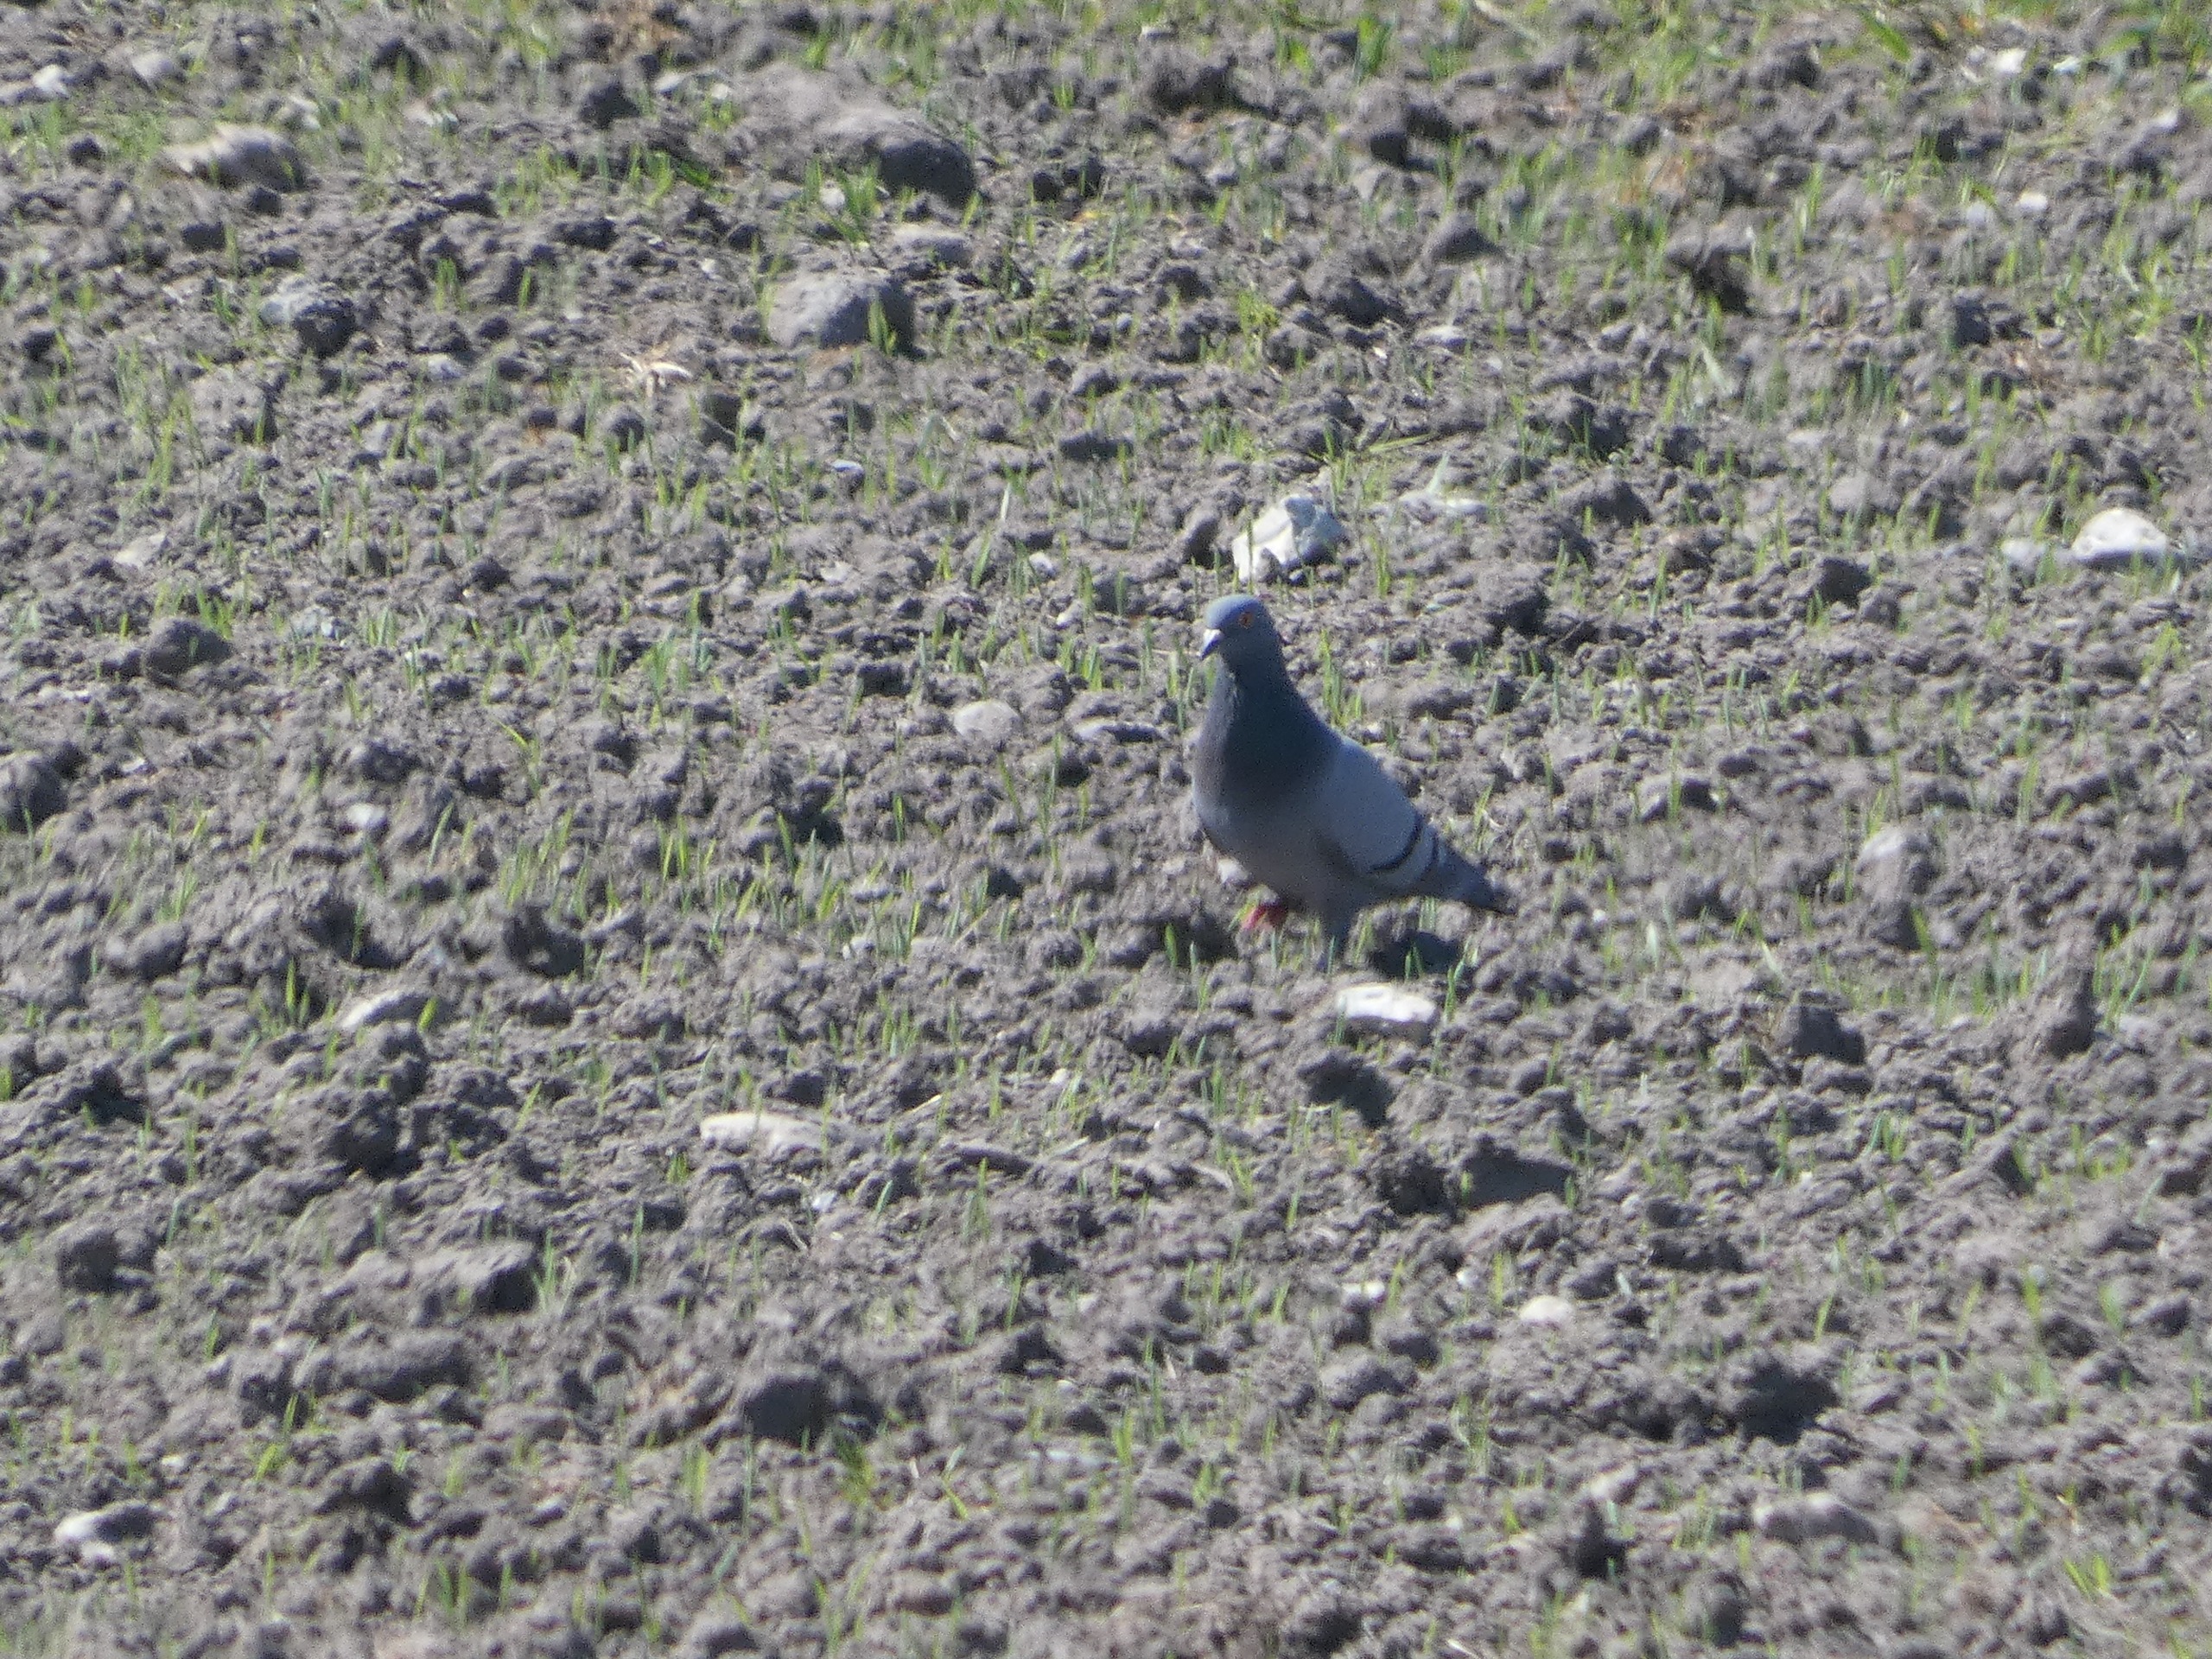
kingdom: Animalia
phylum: Chordata
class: Aves
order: Columbiformes
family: Columbidae
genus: Columba
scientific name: Columba livia
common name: Klippedue
